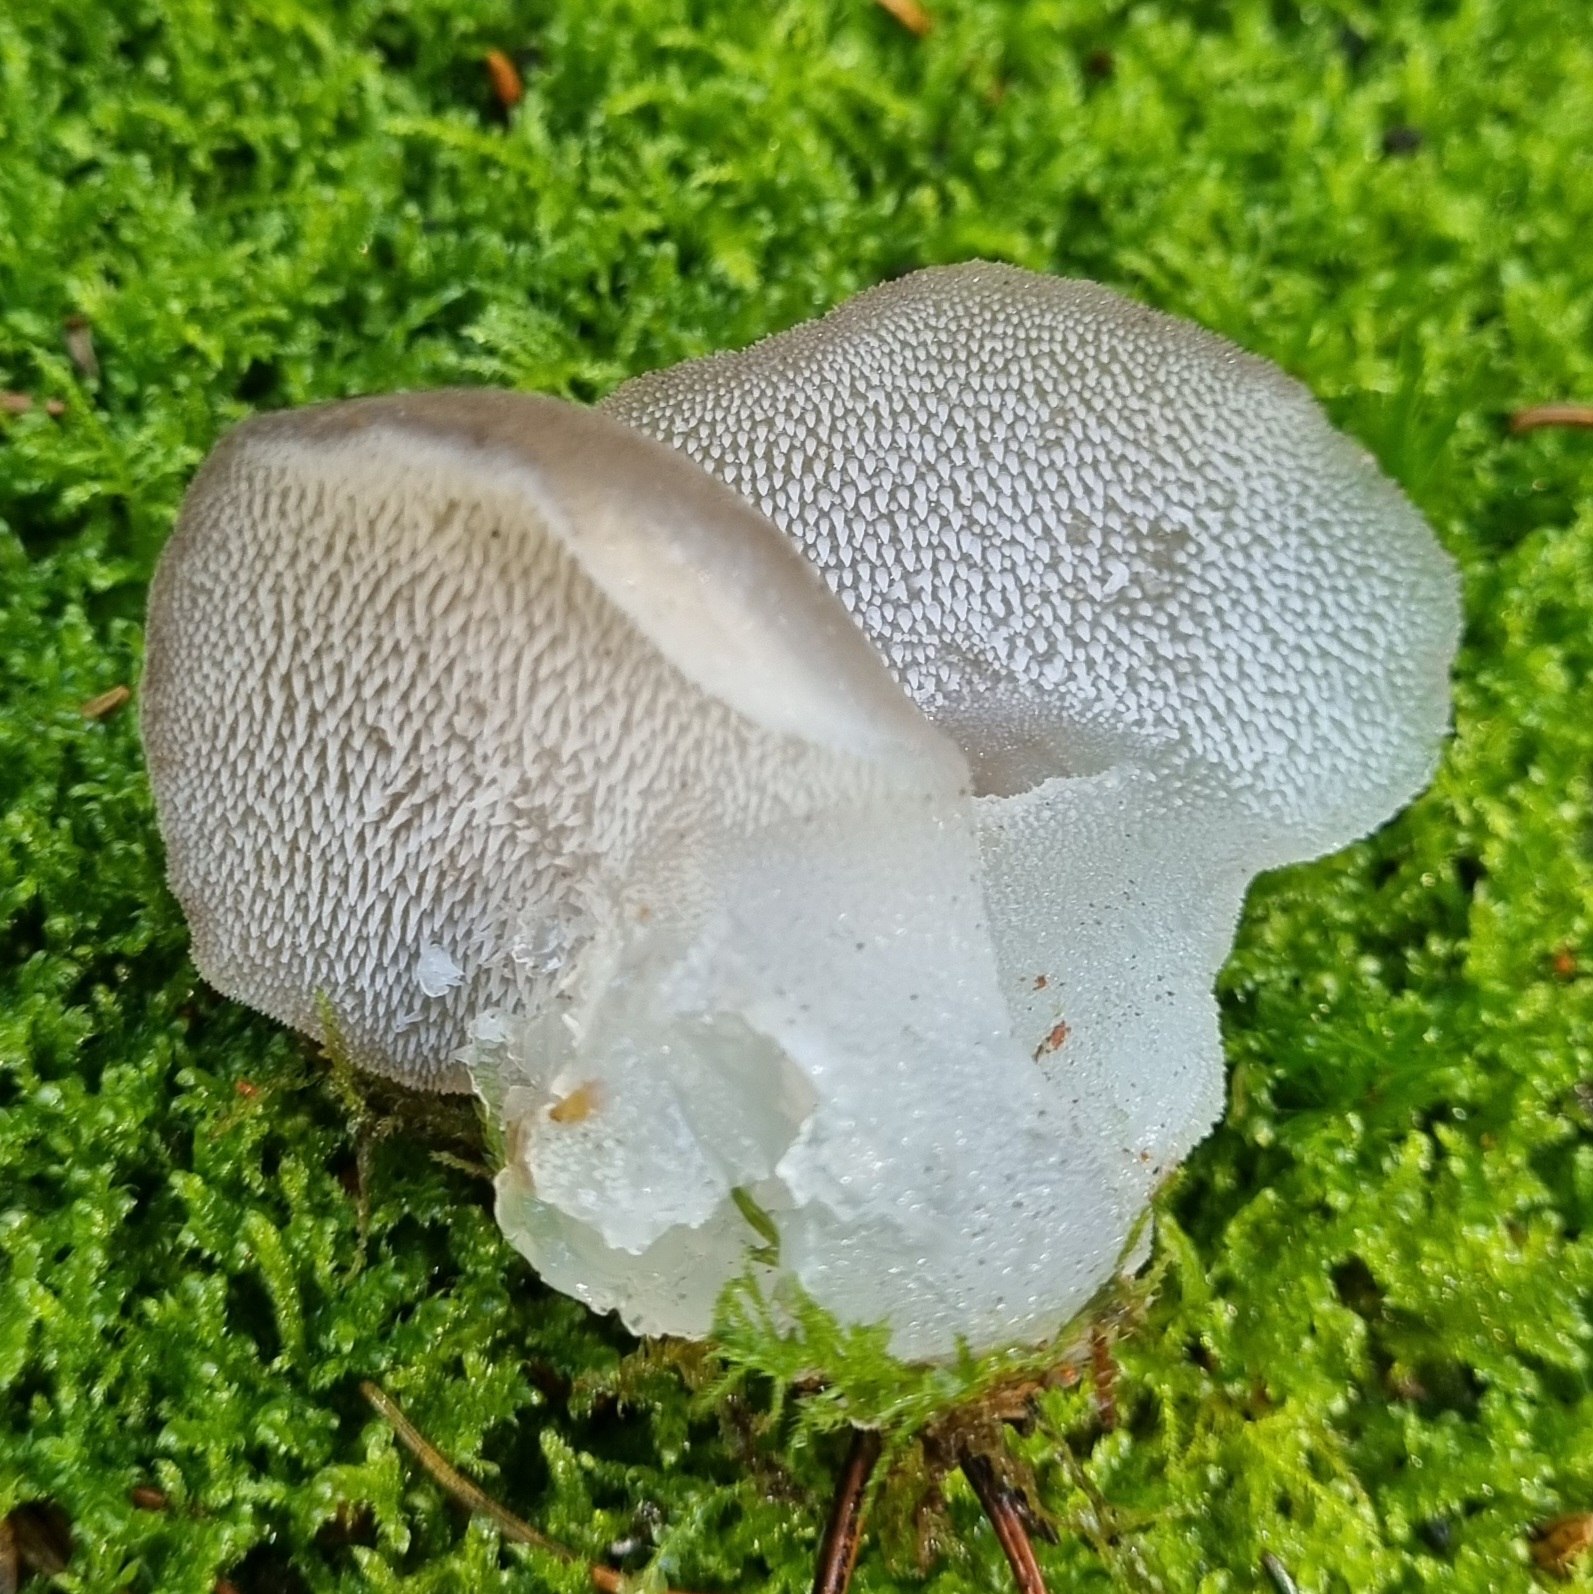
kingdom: Fungi
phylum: Basidiomycota
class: Agaricomycetes
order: Auriculariales
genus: Pseudohydnum
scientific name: Pseudohydnum gelatinosum
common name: bævretand
